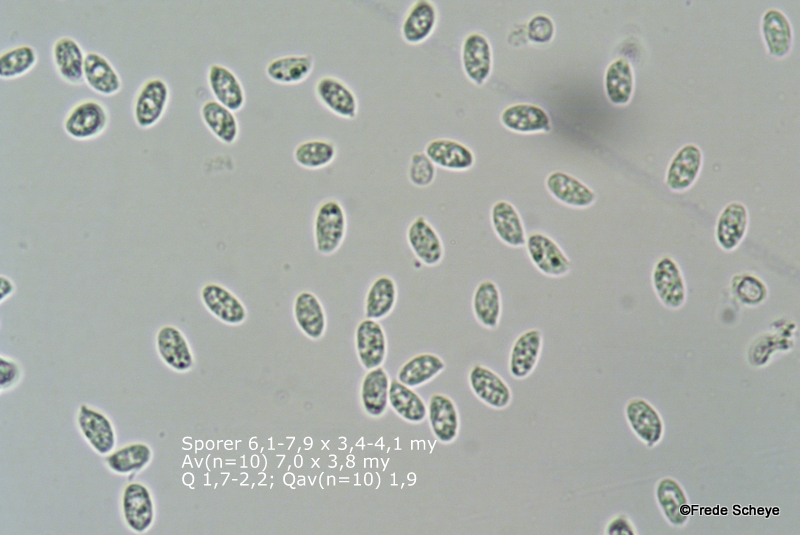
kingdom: Fungi
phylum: Basidiomycota
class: Agaricomycetes
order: Agaricales
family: Physalacriaceae
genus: Flammulina
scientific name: Flammulina velutipes
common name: gul fløjlsfod
